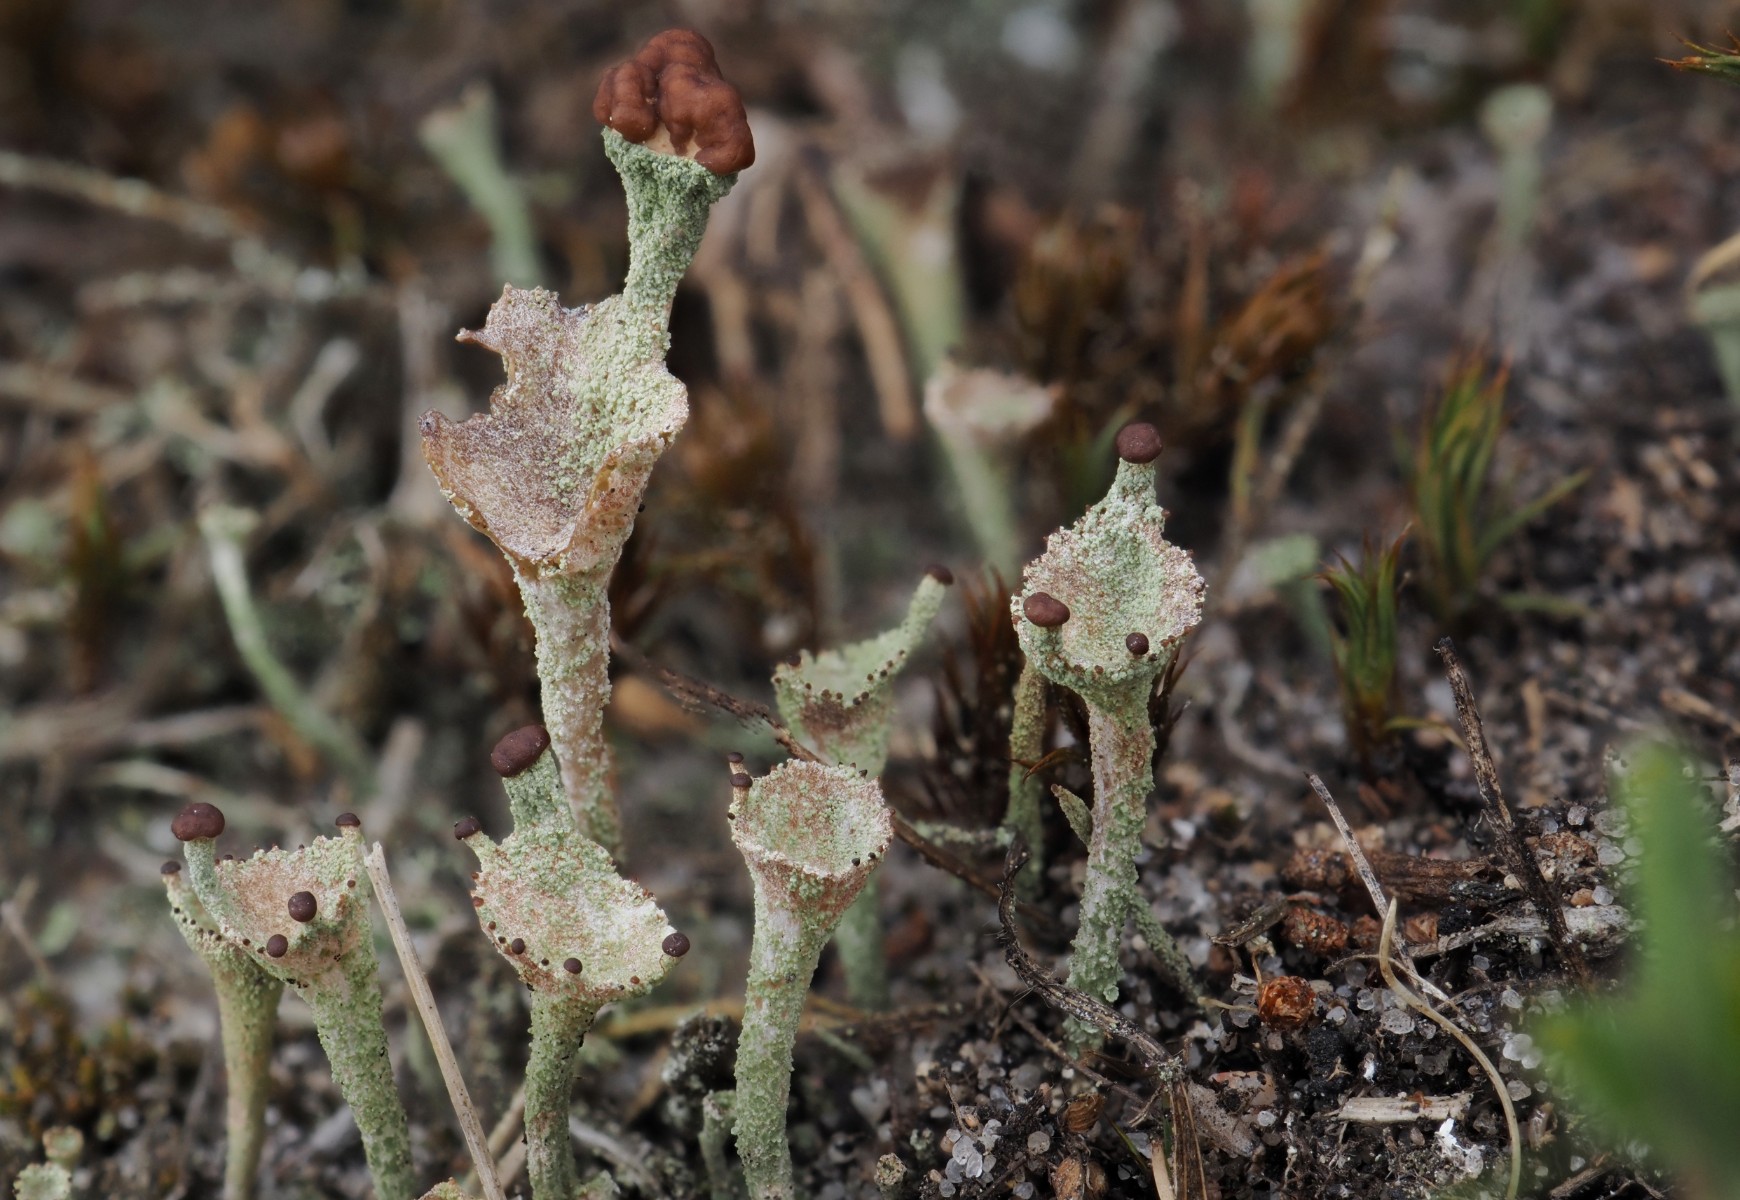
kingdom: Fungi
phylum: Ascomycota
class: Lecanoromycetes
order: Lecanorales
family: Cladoniaceae
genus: Cladonia
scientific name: Cladonia novochlorophaea
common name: sortbrun bægerlav
